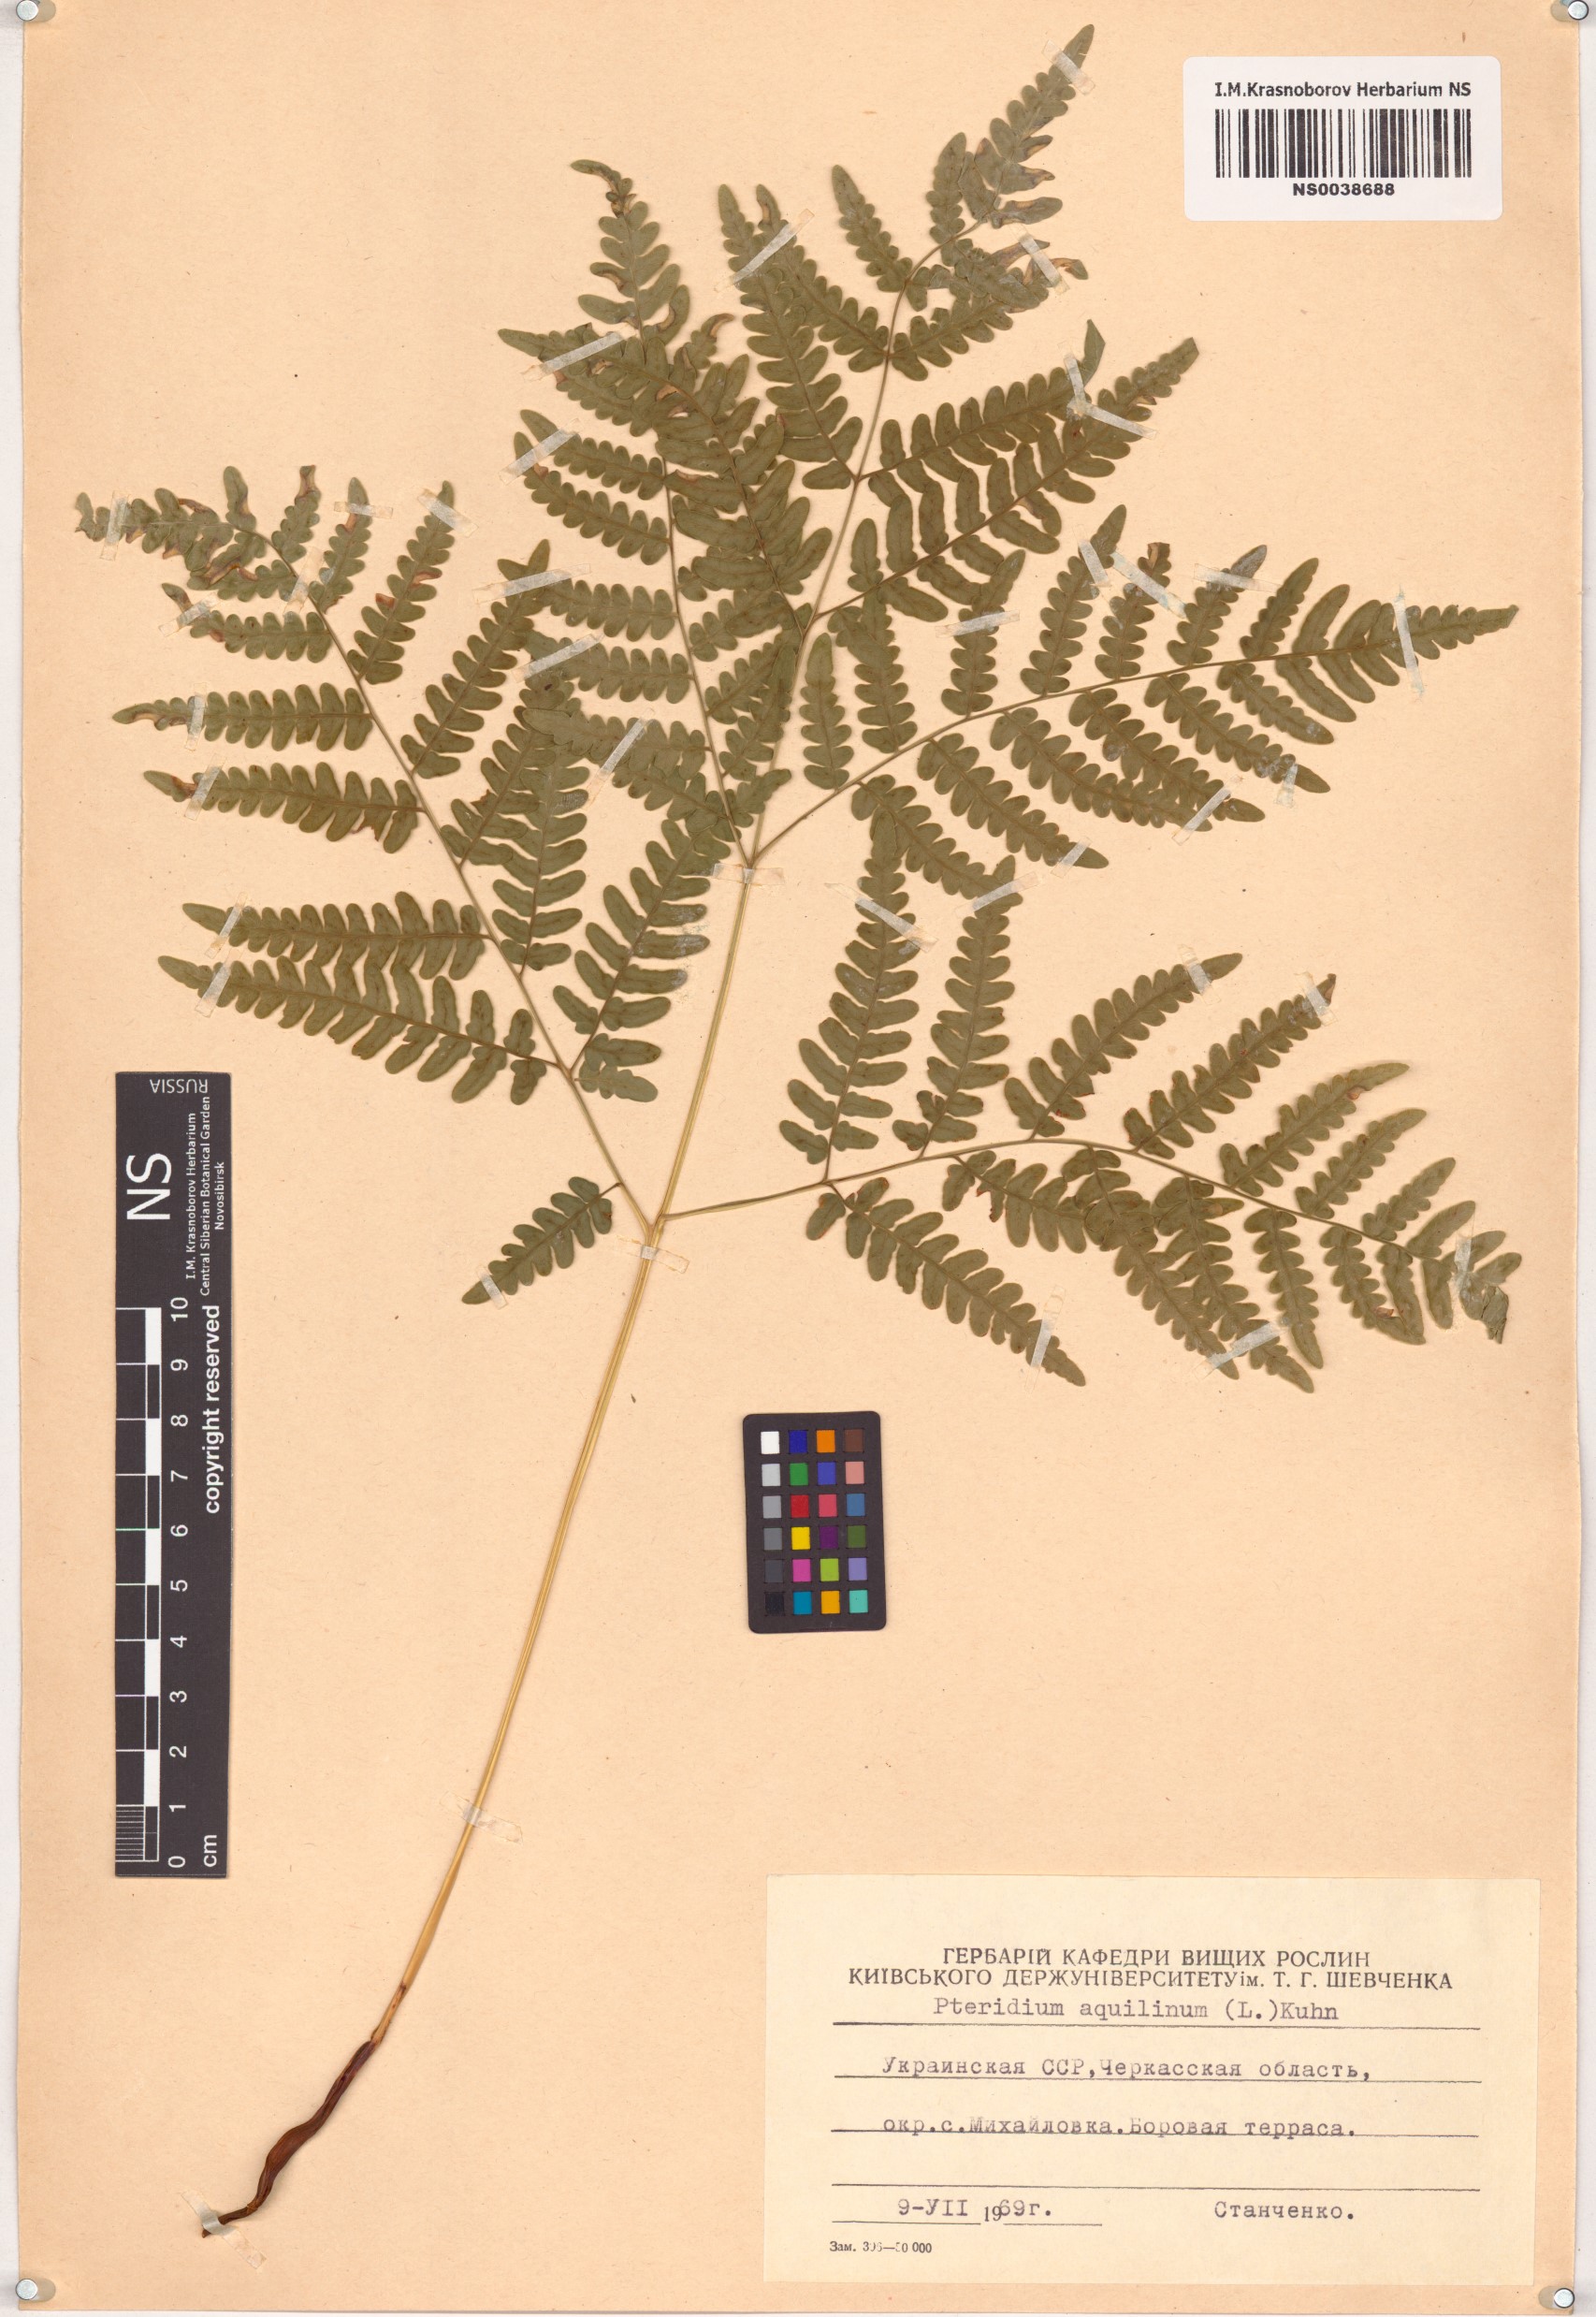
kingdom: Plantae
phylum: Tracheophyta
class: Polypodiopsida
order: Polypodiales
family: Dennstaedtiaceae
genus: Pteridium
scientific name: Pteridium aquilinum
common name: Bracken
